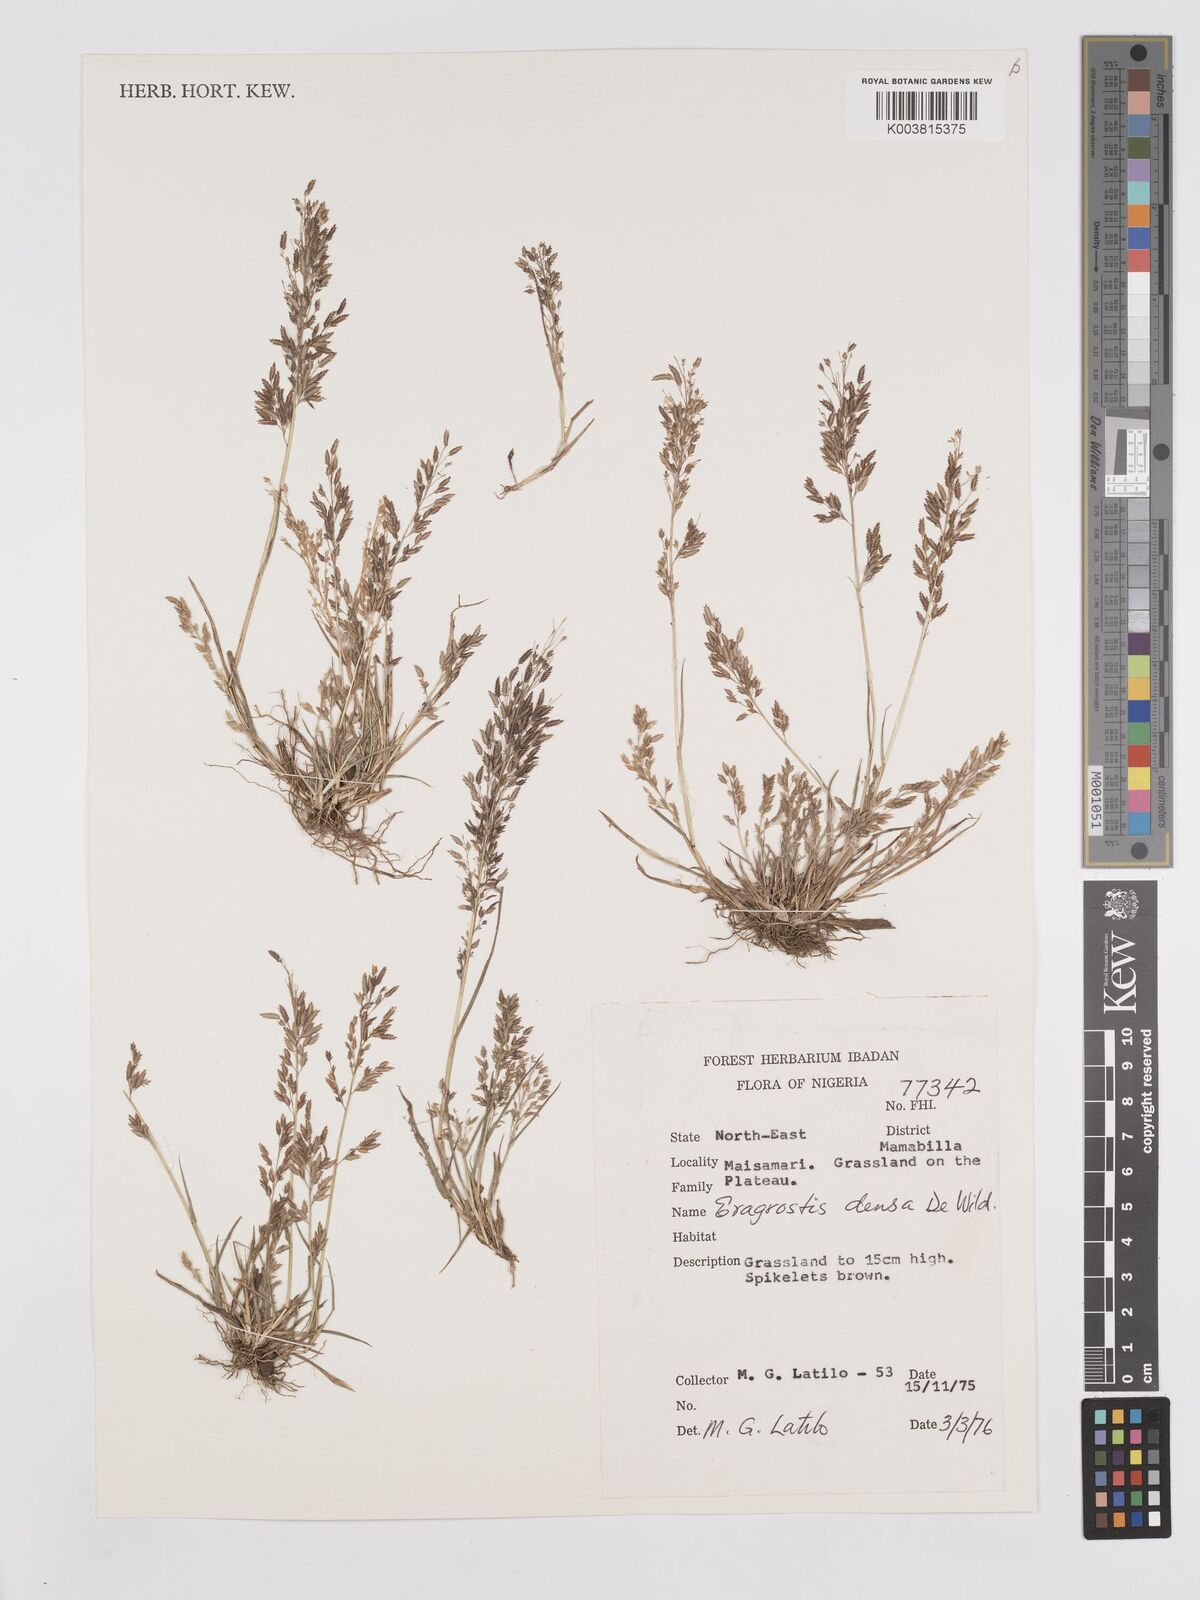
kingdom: Plantae
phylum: Tracheophyta
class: Liliopsida
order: Poales
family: Poaceae
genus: Eragrostis
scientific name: Eragrostis welwitschii
